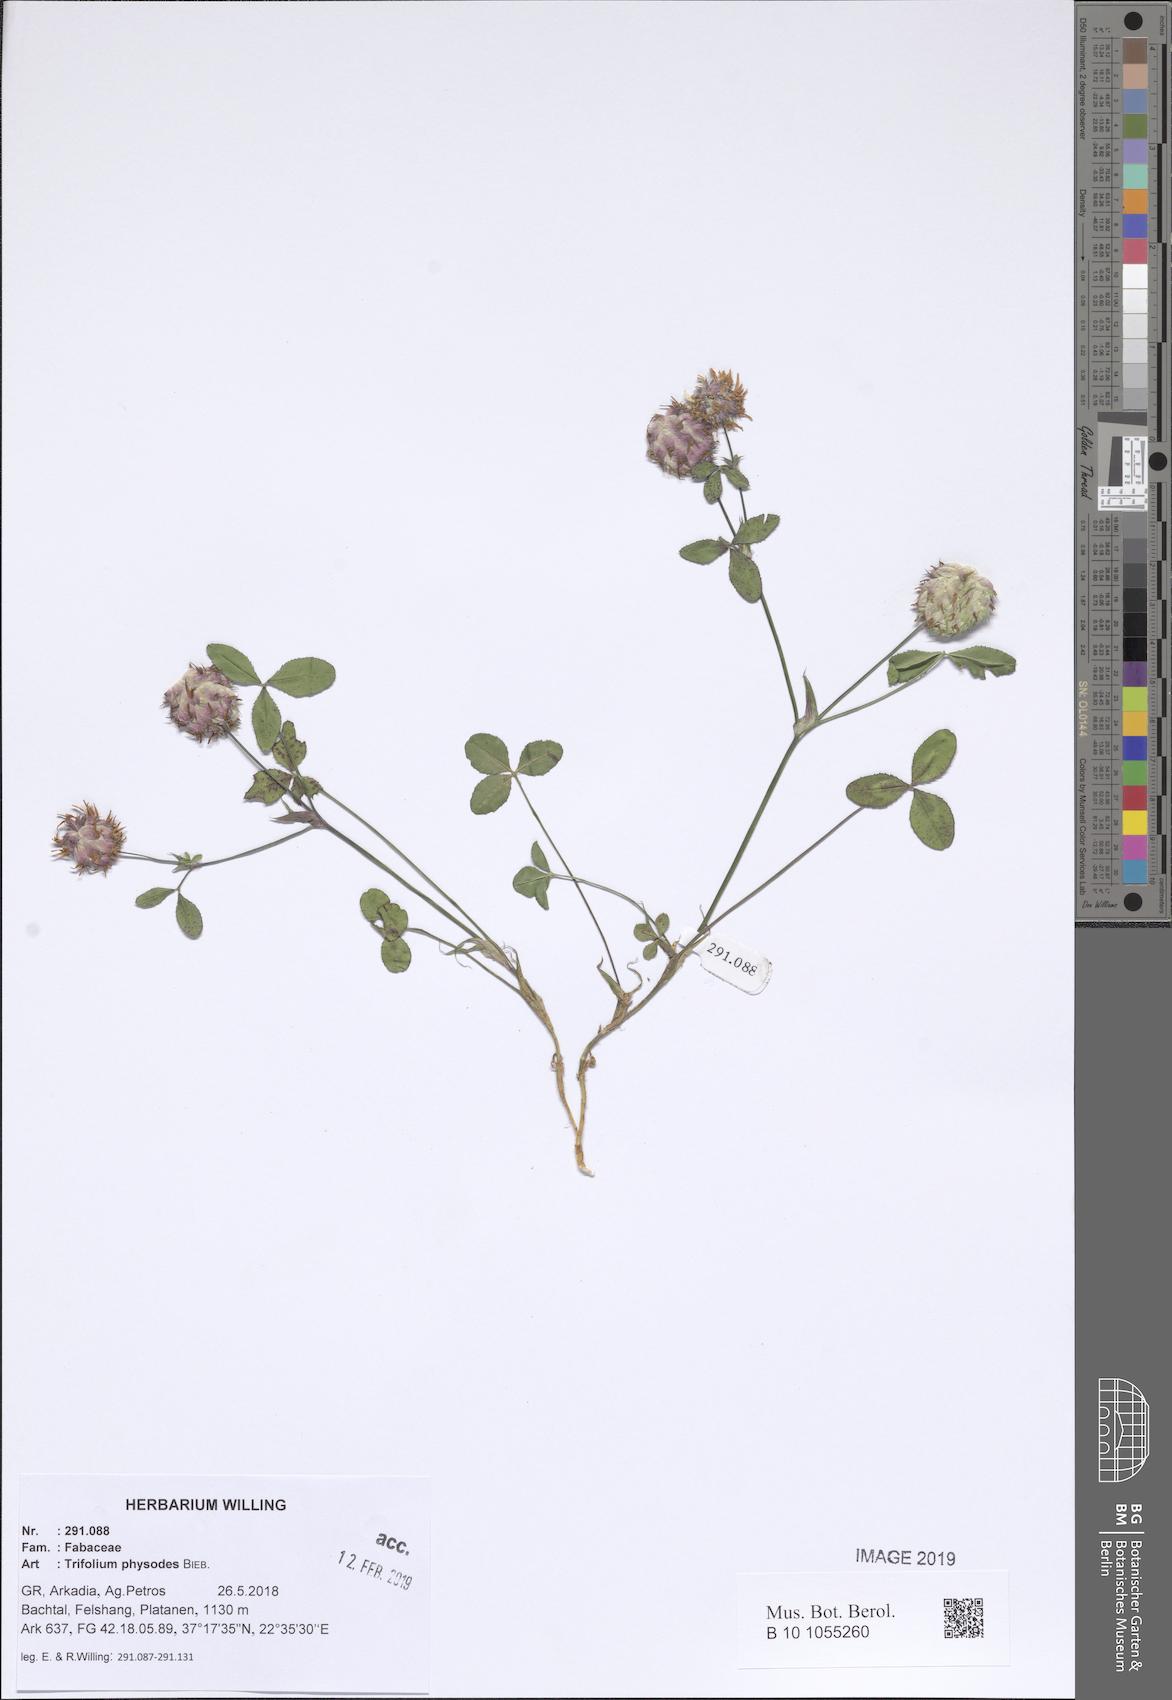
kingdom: Plantae
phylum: Tracheophyta
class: Magnoliopsida
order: Fabales
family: Fabaceae
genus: Trifolium
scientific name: Trifolium physodes
